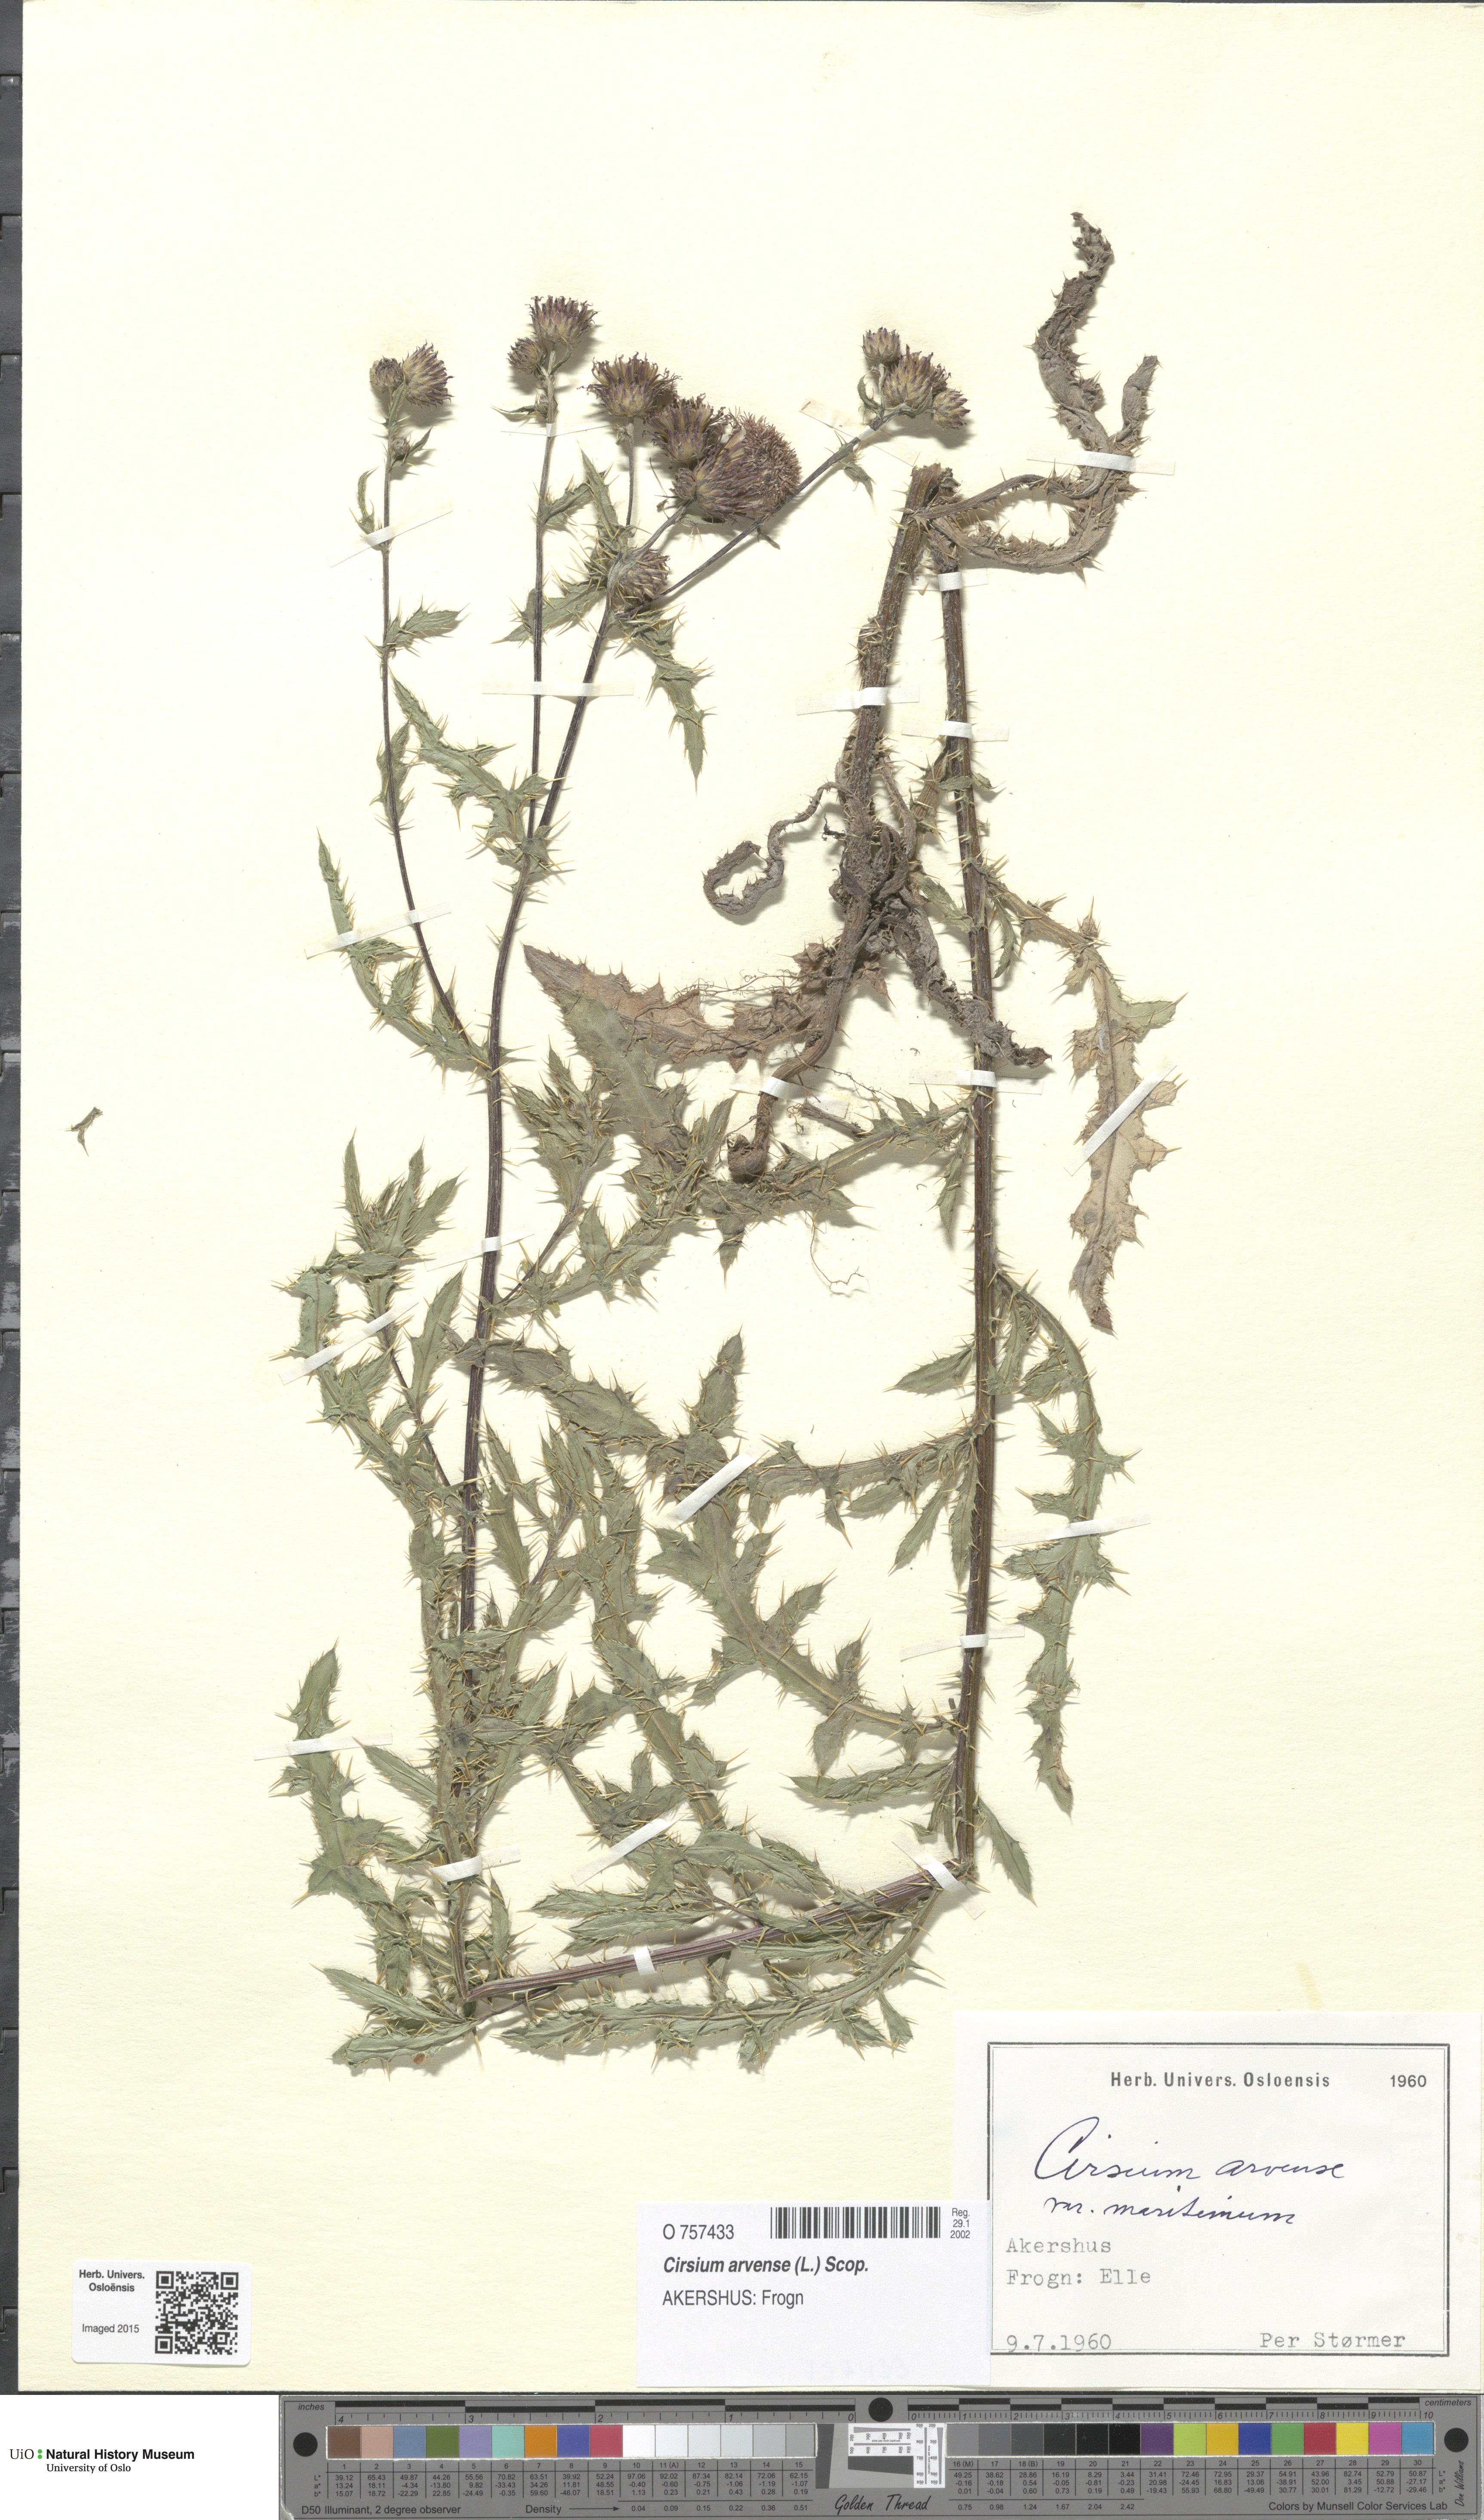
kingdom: Plantae
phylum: Tracheophyta
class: Magnoliopsida
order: Asterales
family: Asteraceae
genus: Cirsium
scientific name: Cirsium arvense
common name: Creeping thistle
